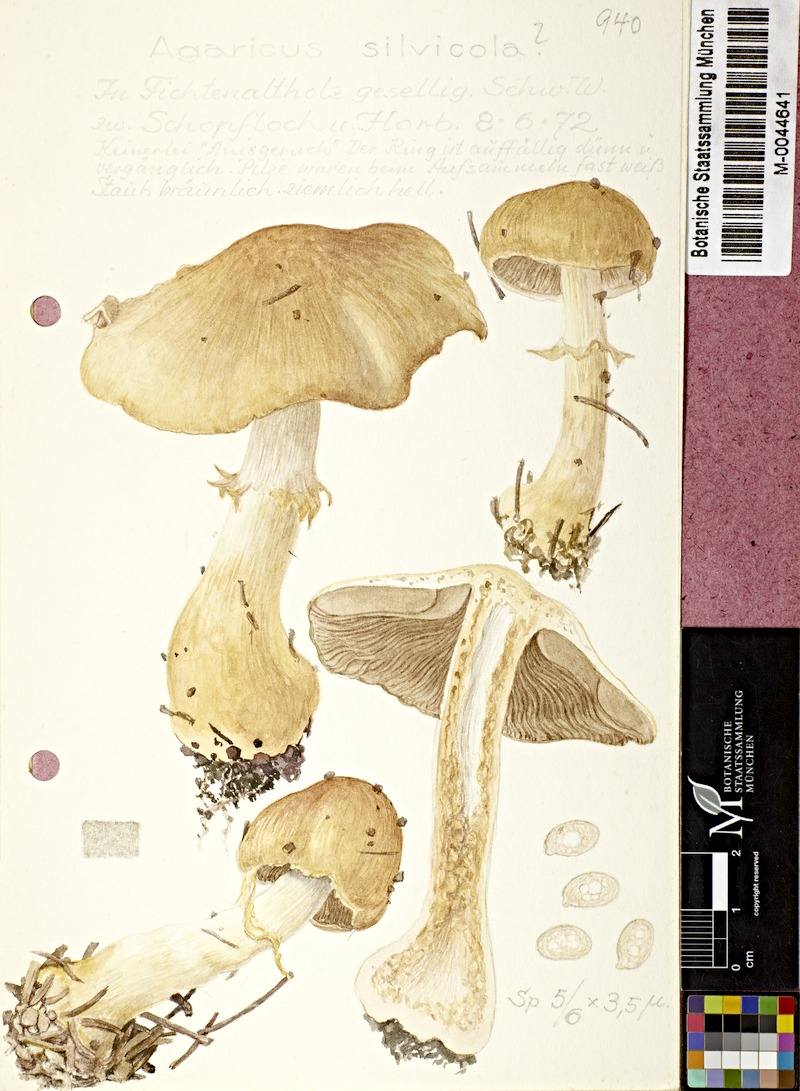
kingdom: Fungi
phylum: Basidiomycota
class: Agaricomycetes
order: Agaricales
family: Agaricaceae
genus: Agaricus
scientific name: Agaricus sylvicola
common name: Wood mushroom
